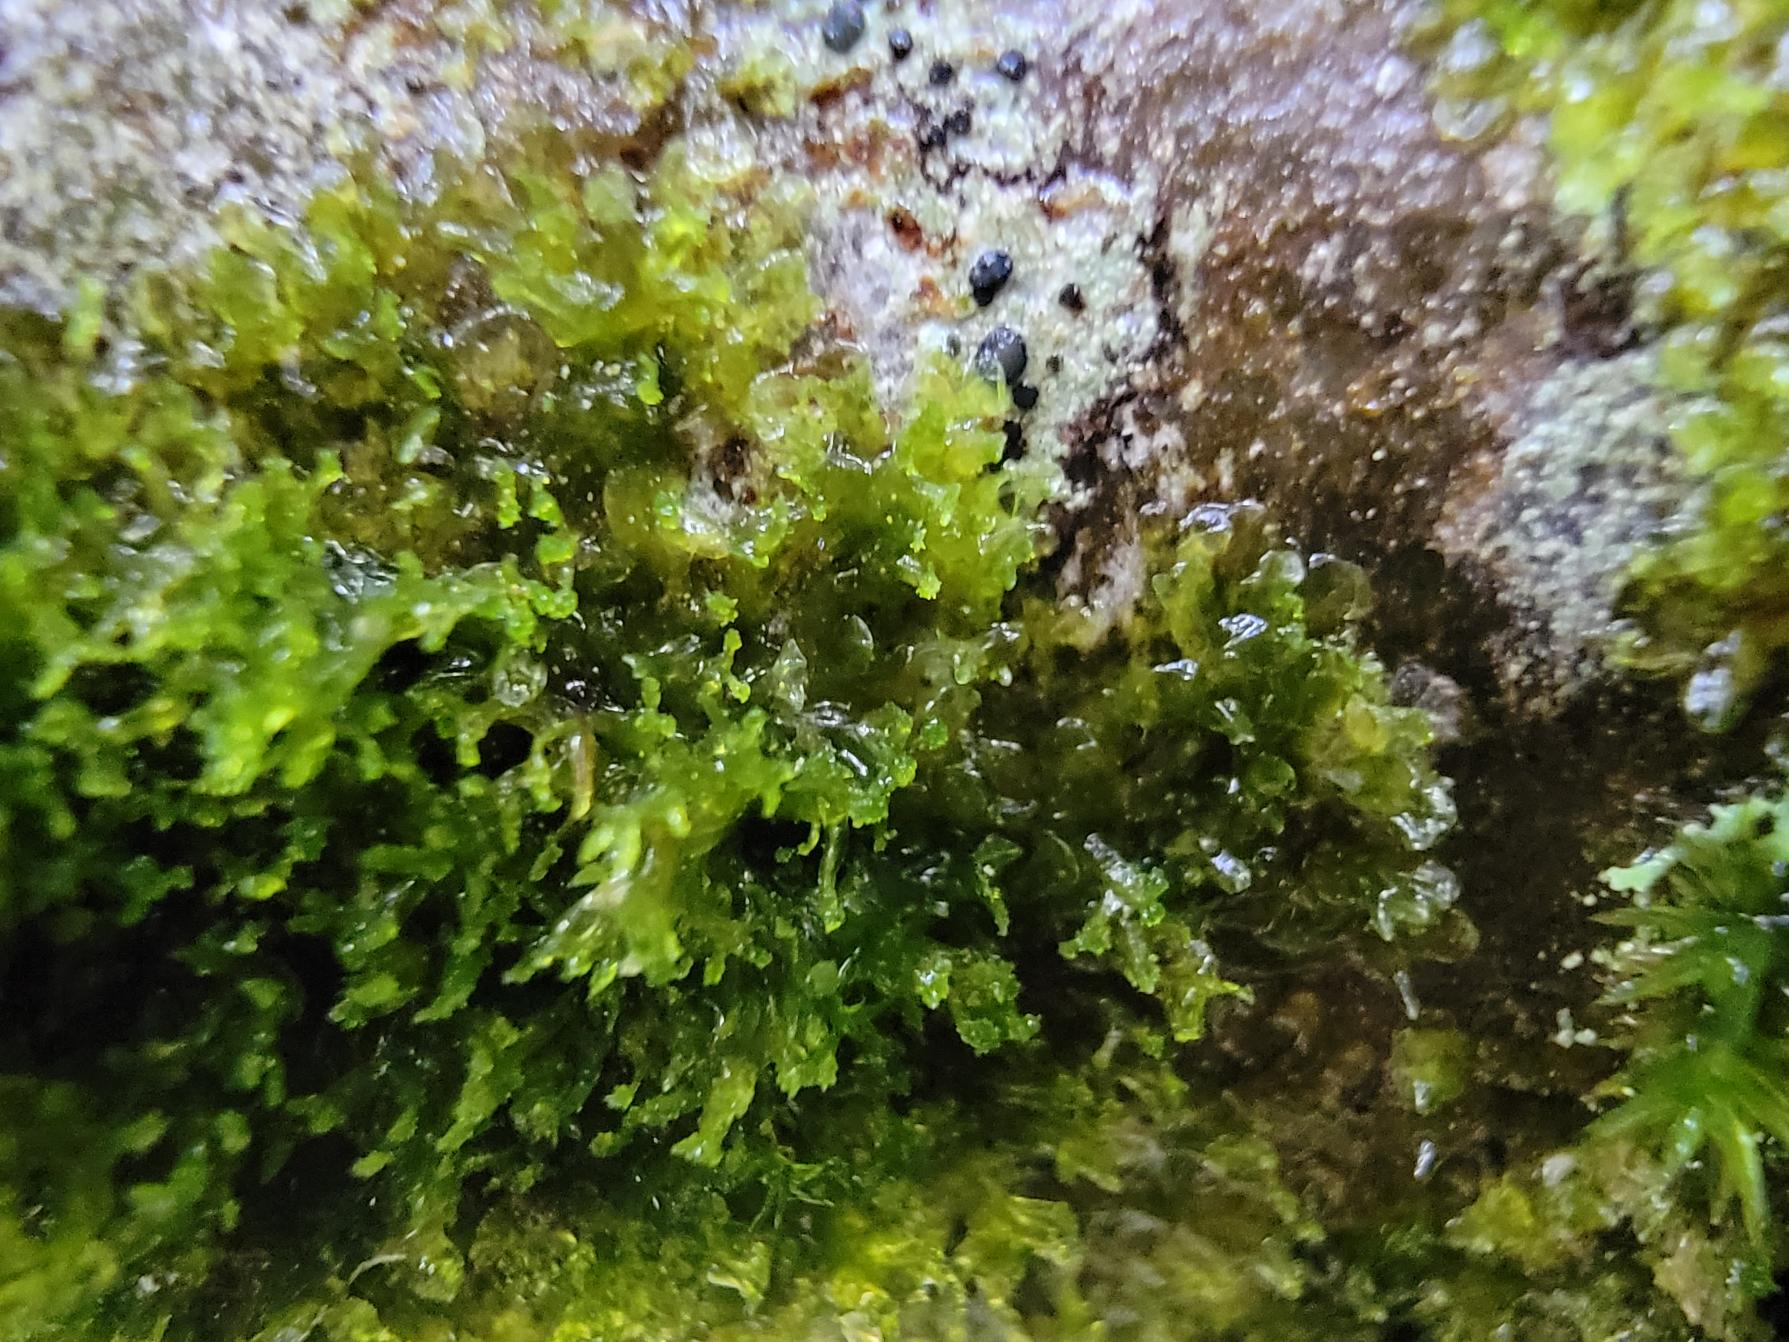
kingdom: Plantae
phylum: Marchantiophyta
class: Jungermanniopsida
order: Metzgeriales
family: Aneuraceae
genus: Riccardia
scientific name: Riccardia palmata
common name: Blågrøn gaffelløv
